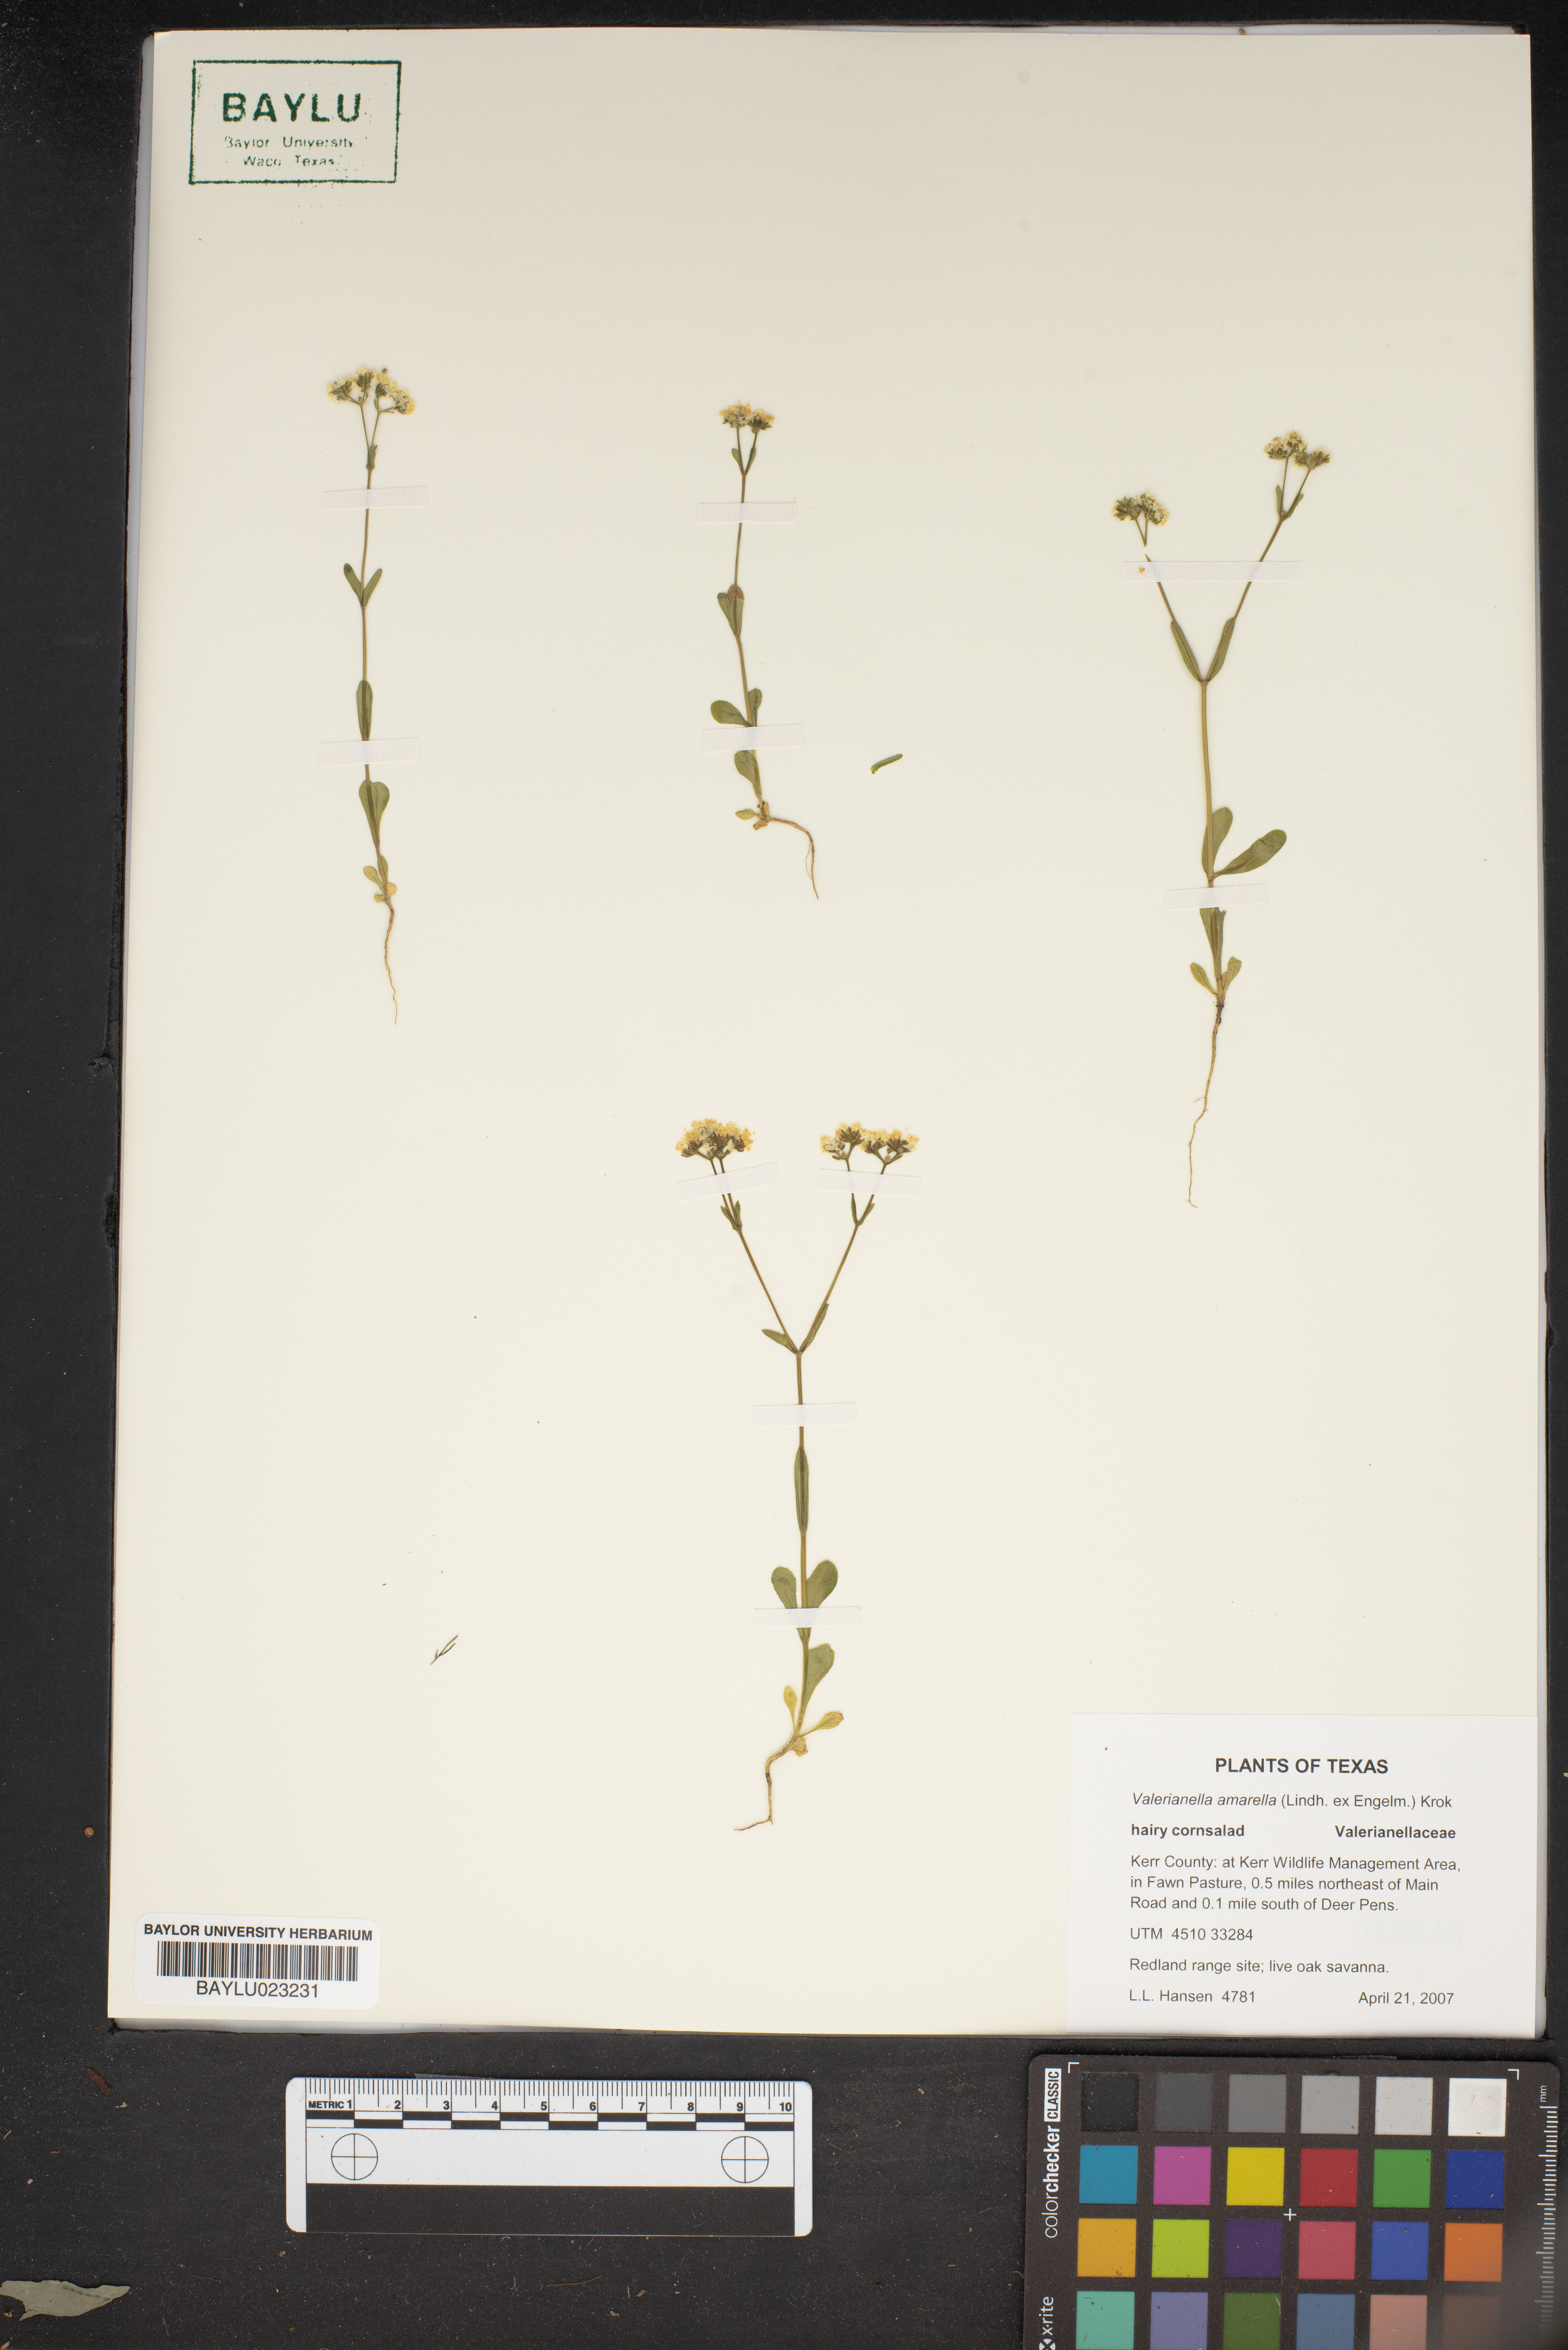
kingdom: Plantae
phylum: Tracheophyta
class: Magnoliopsida
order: Dipsacales
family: Caprifoliaceae
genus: Valerianella
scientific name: Valerianella amarella
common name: Hariy cornsalad
